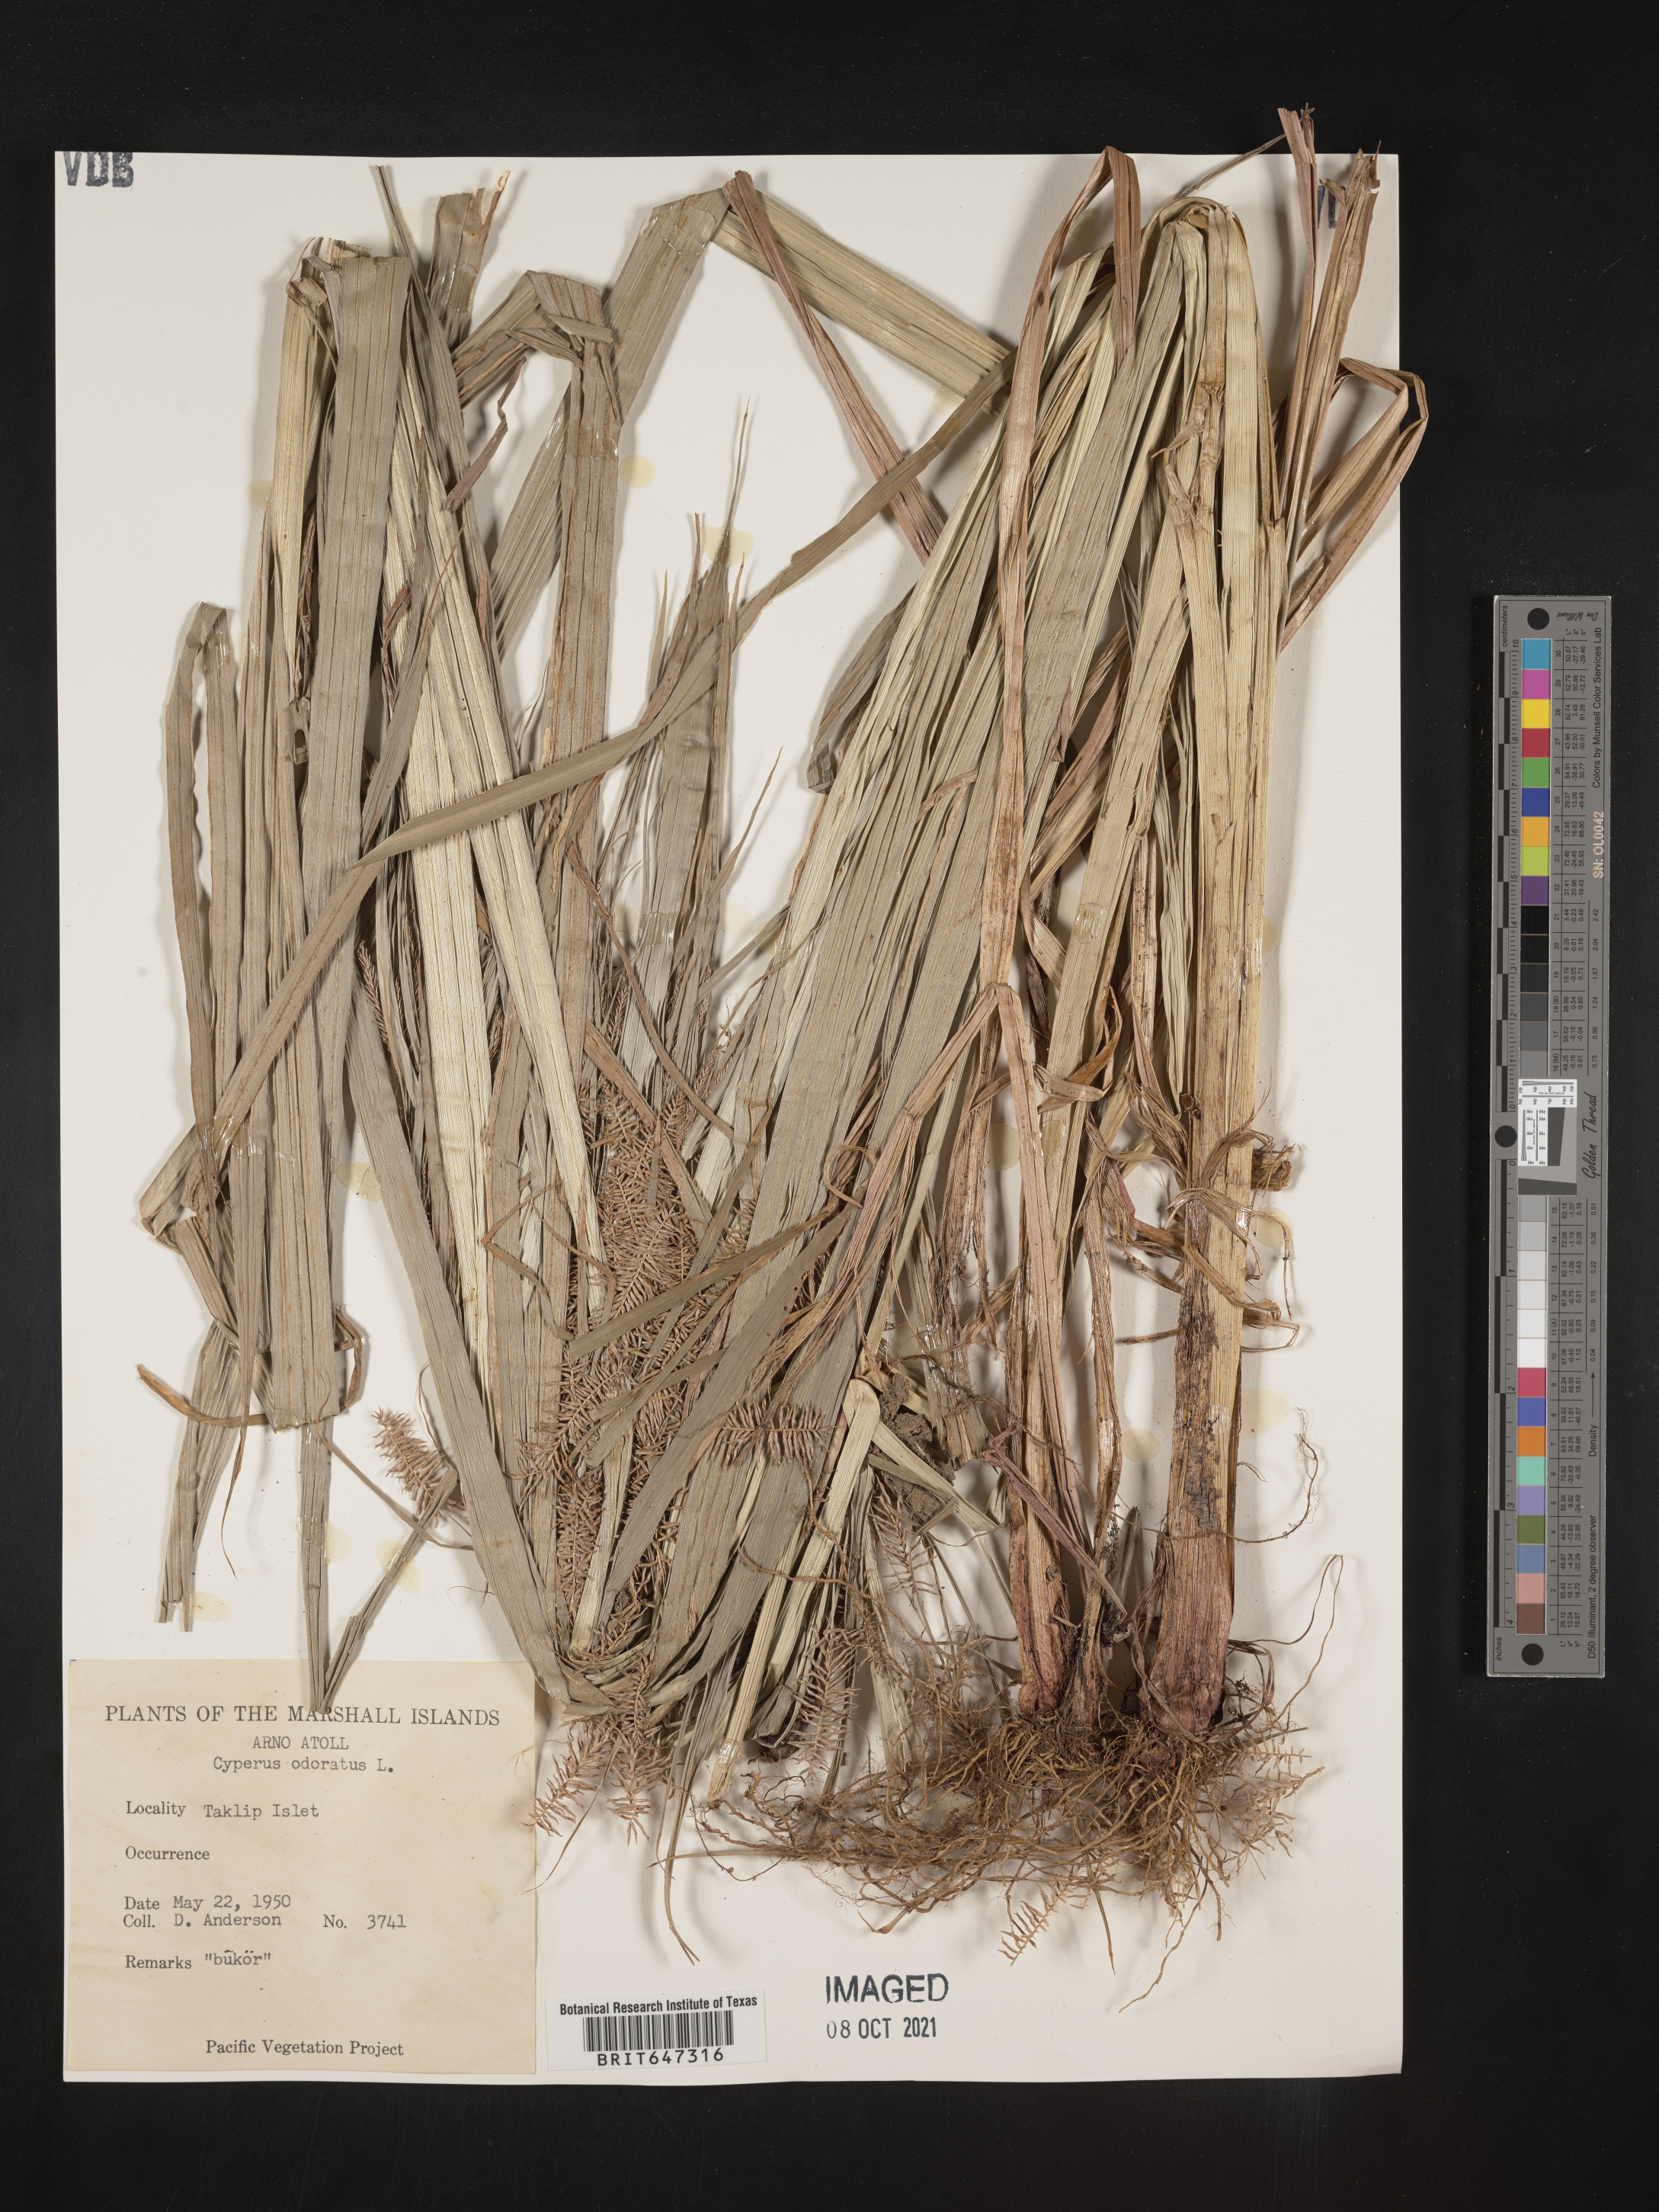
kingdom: Plantae
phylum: Tracheophyta
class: Liliopsida
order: Poales
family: Cyperaceae
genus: Cyperus
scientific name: Cyperus odoratus
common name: Fragrant flatsedge
